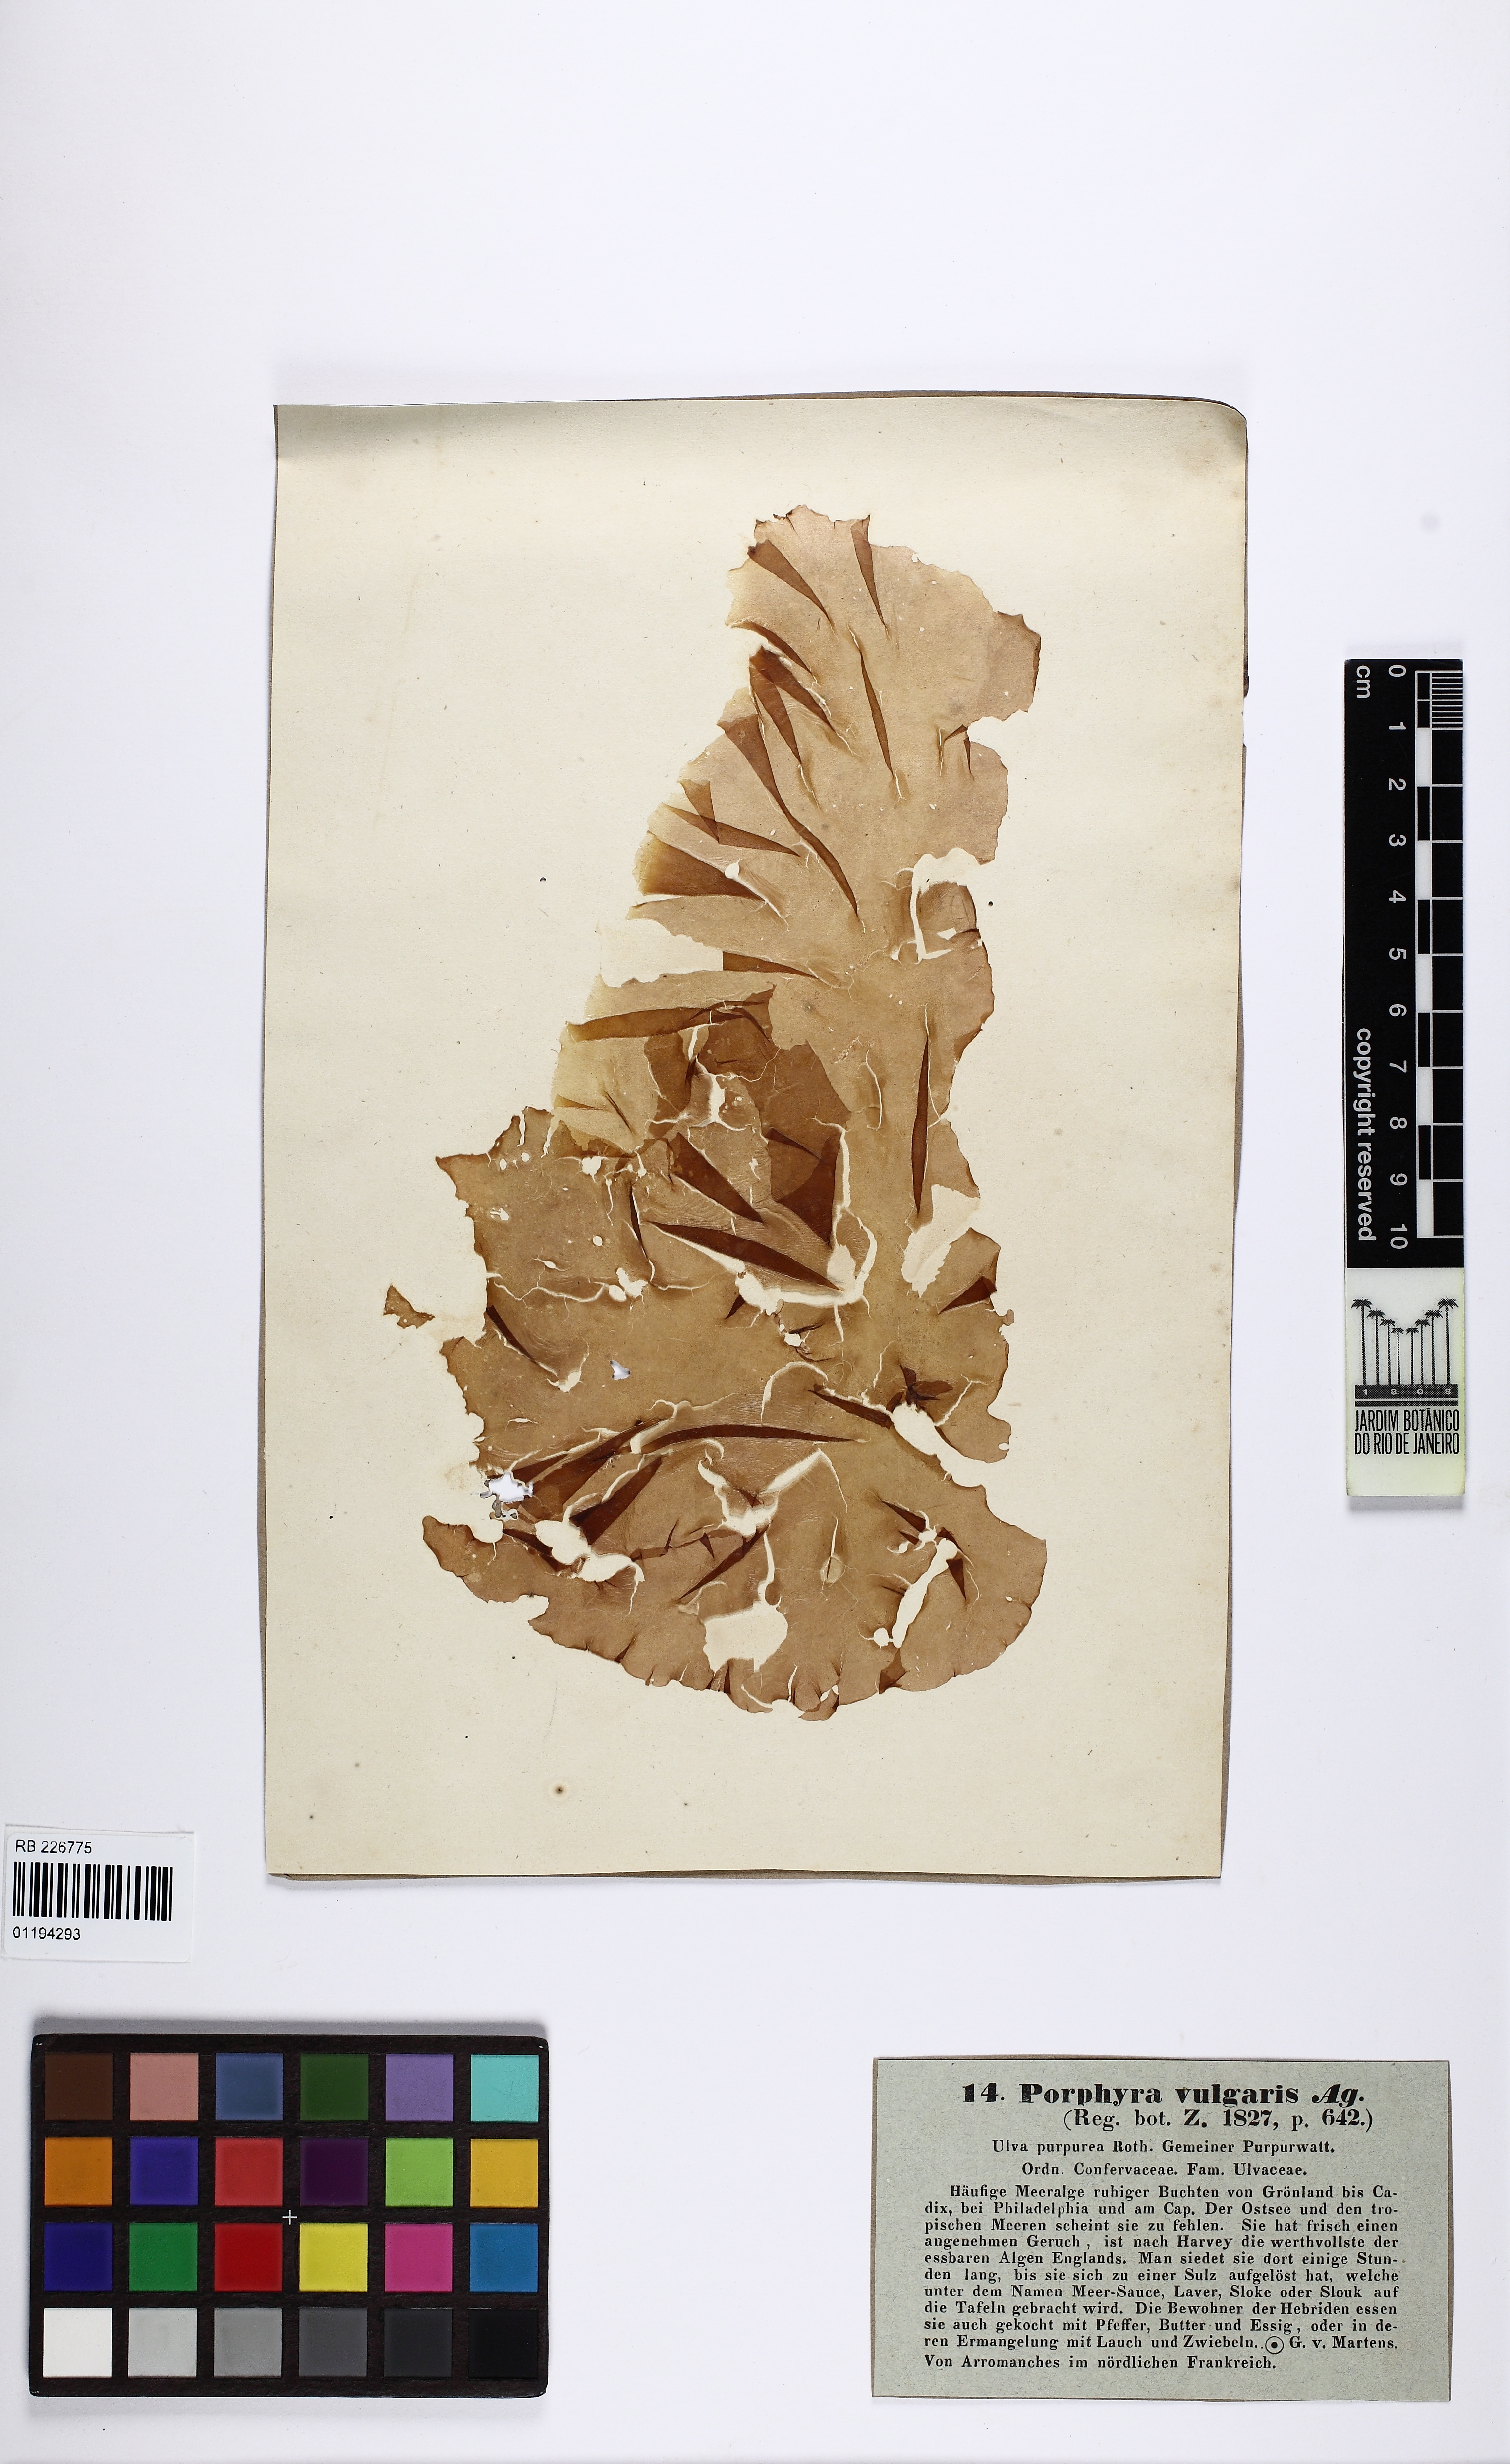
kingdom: Plantae
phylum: Rhodophyta
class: Bangiophyceae
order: Bangiales
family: Bangiaceae
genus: Porphyra
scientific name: Porphyra vulgaris
